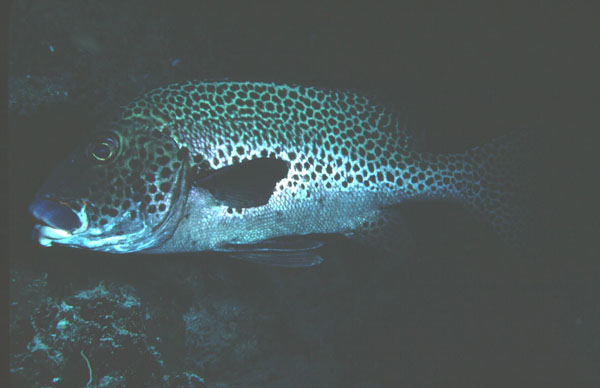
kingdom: Animalia
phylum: Chordata
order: Perciformes
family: Haemulidae
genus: Plectorhinchus
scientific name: Plectorhinchus chaetodonoides
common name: Harlequin sweetlips
